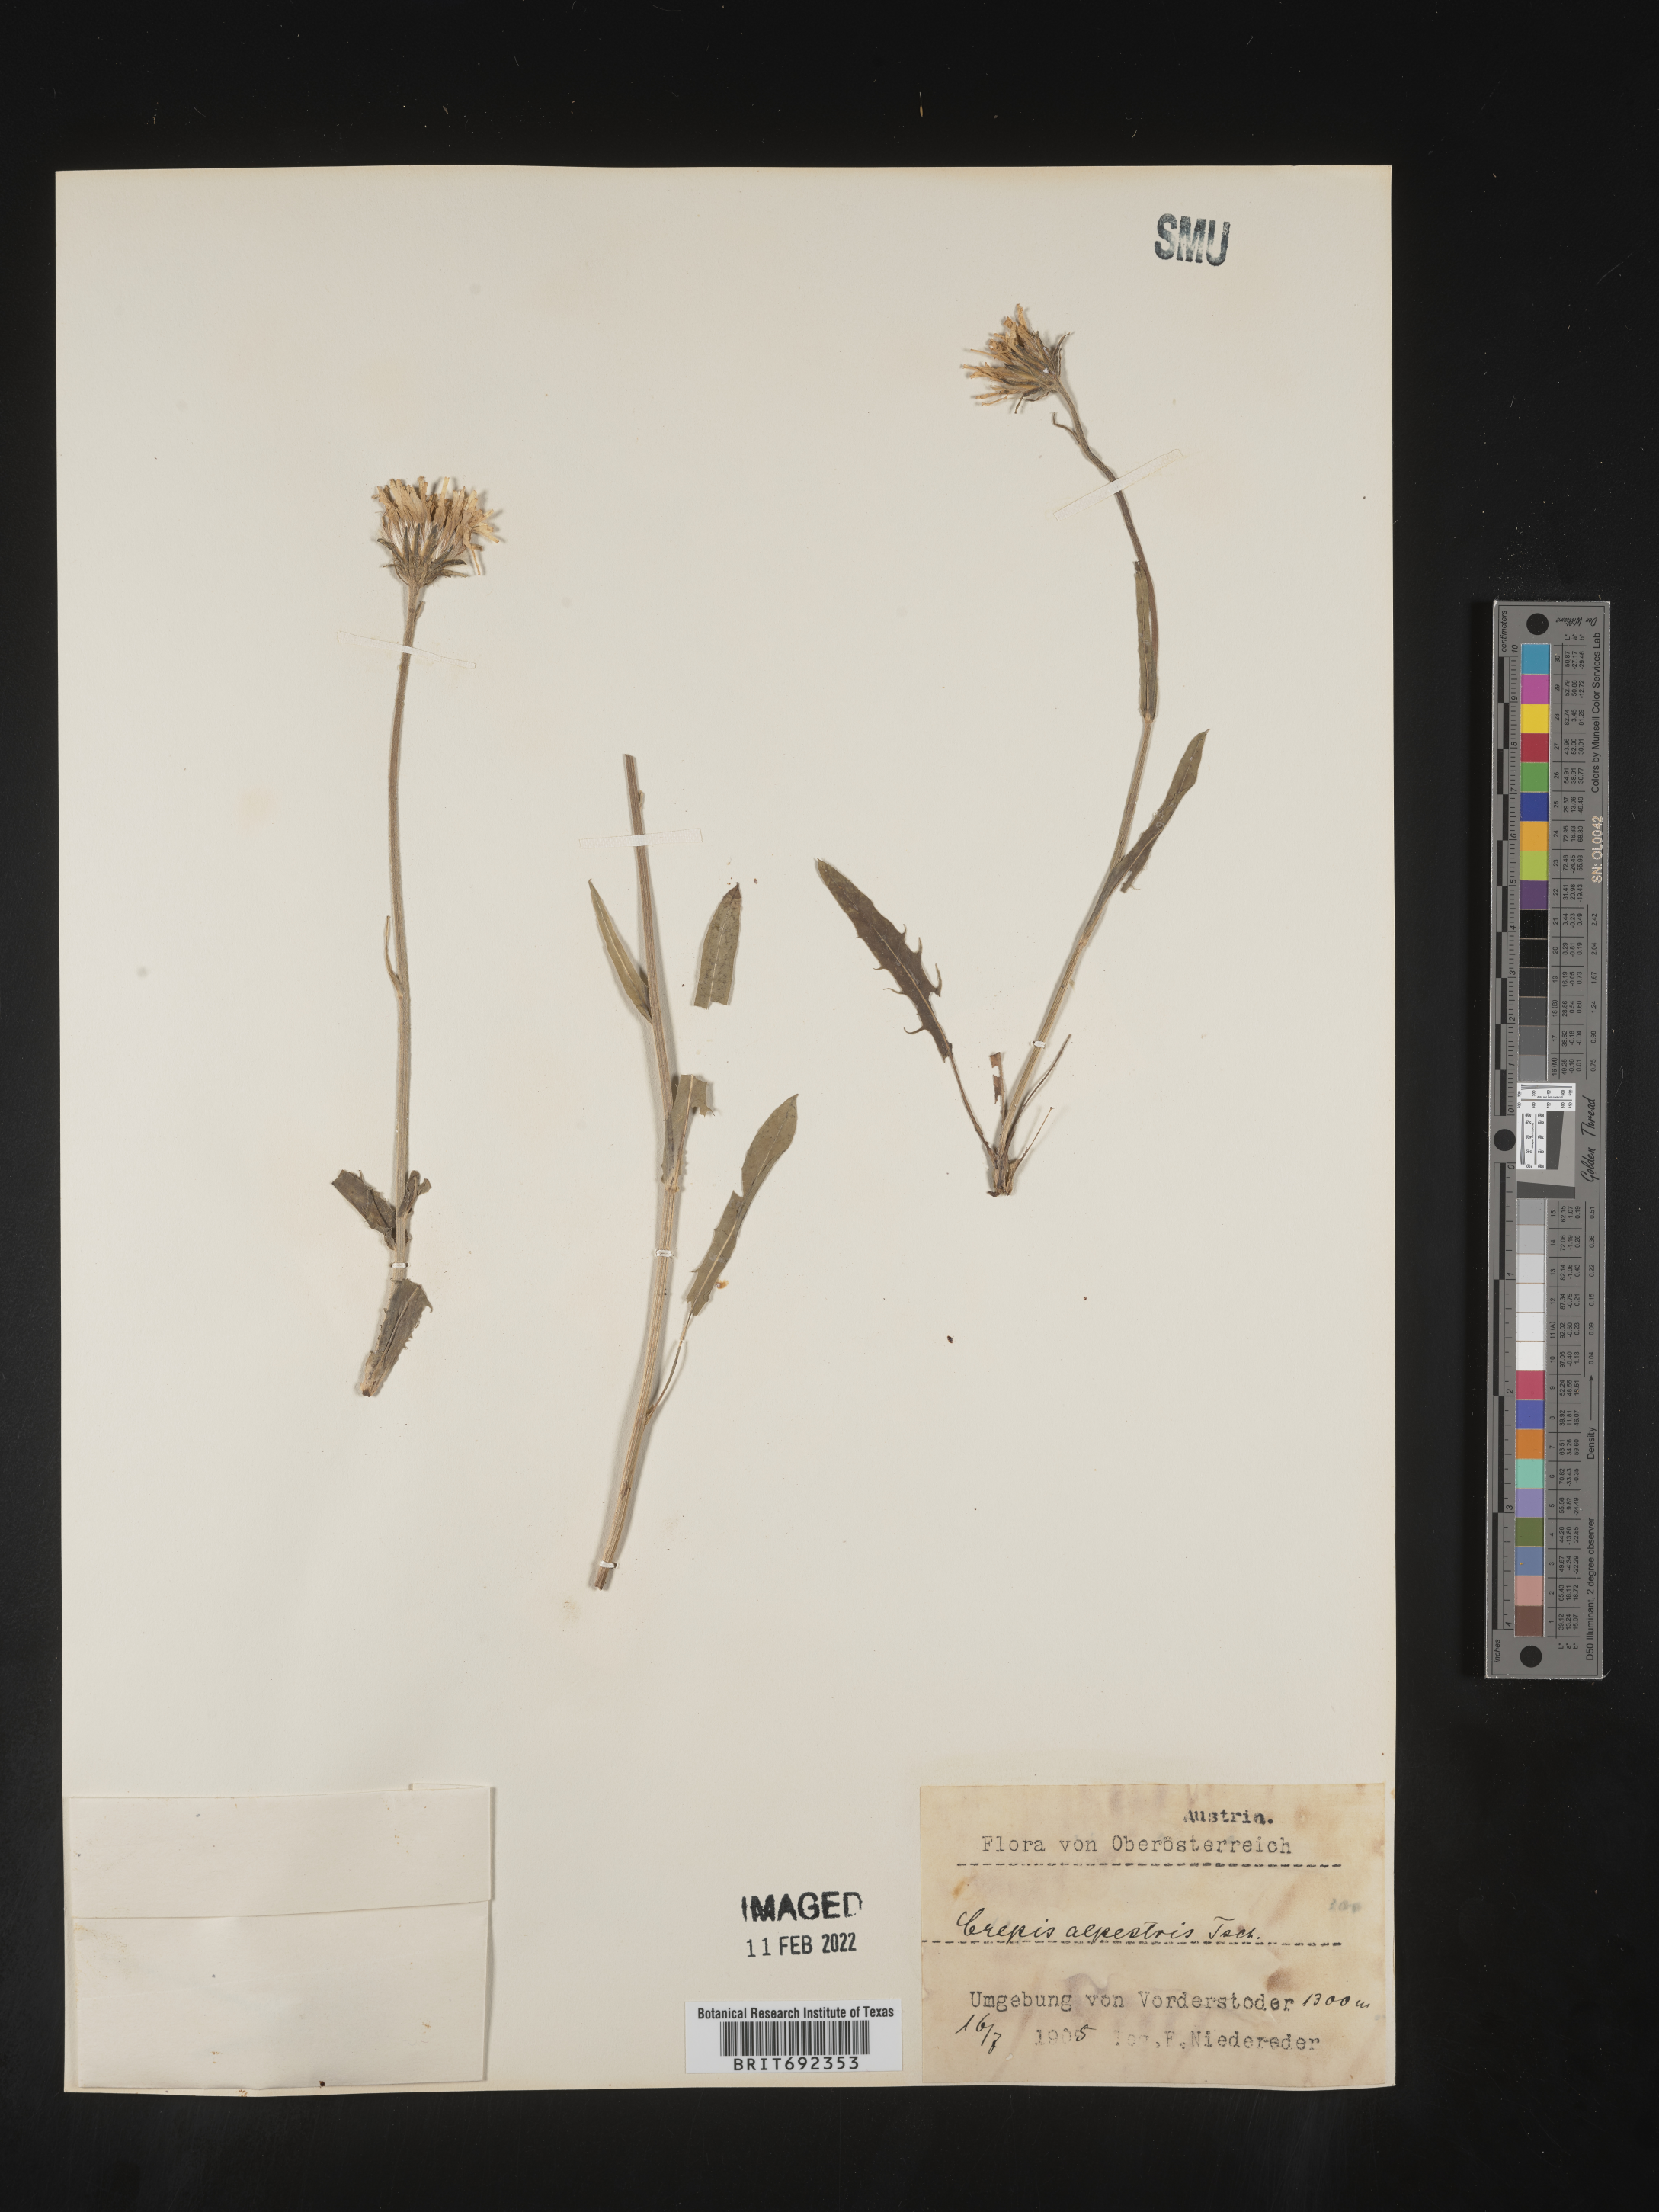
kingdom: Plantae
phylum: Tracheophyta
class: Magnoliopsida
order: Asterales
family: Asteraceae
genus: Crepis
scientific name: Crepis
